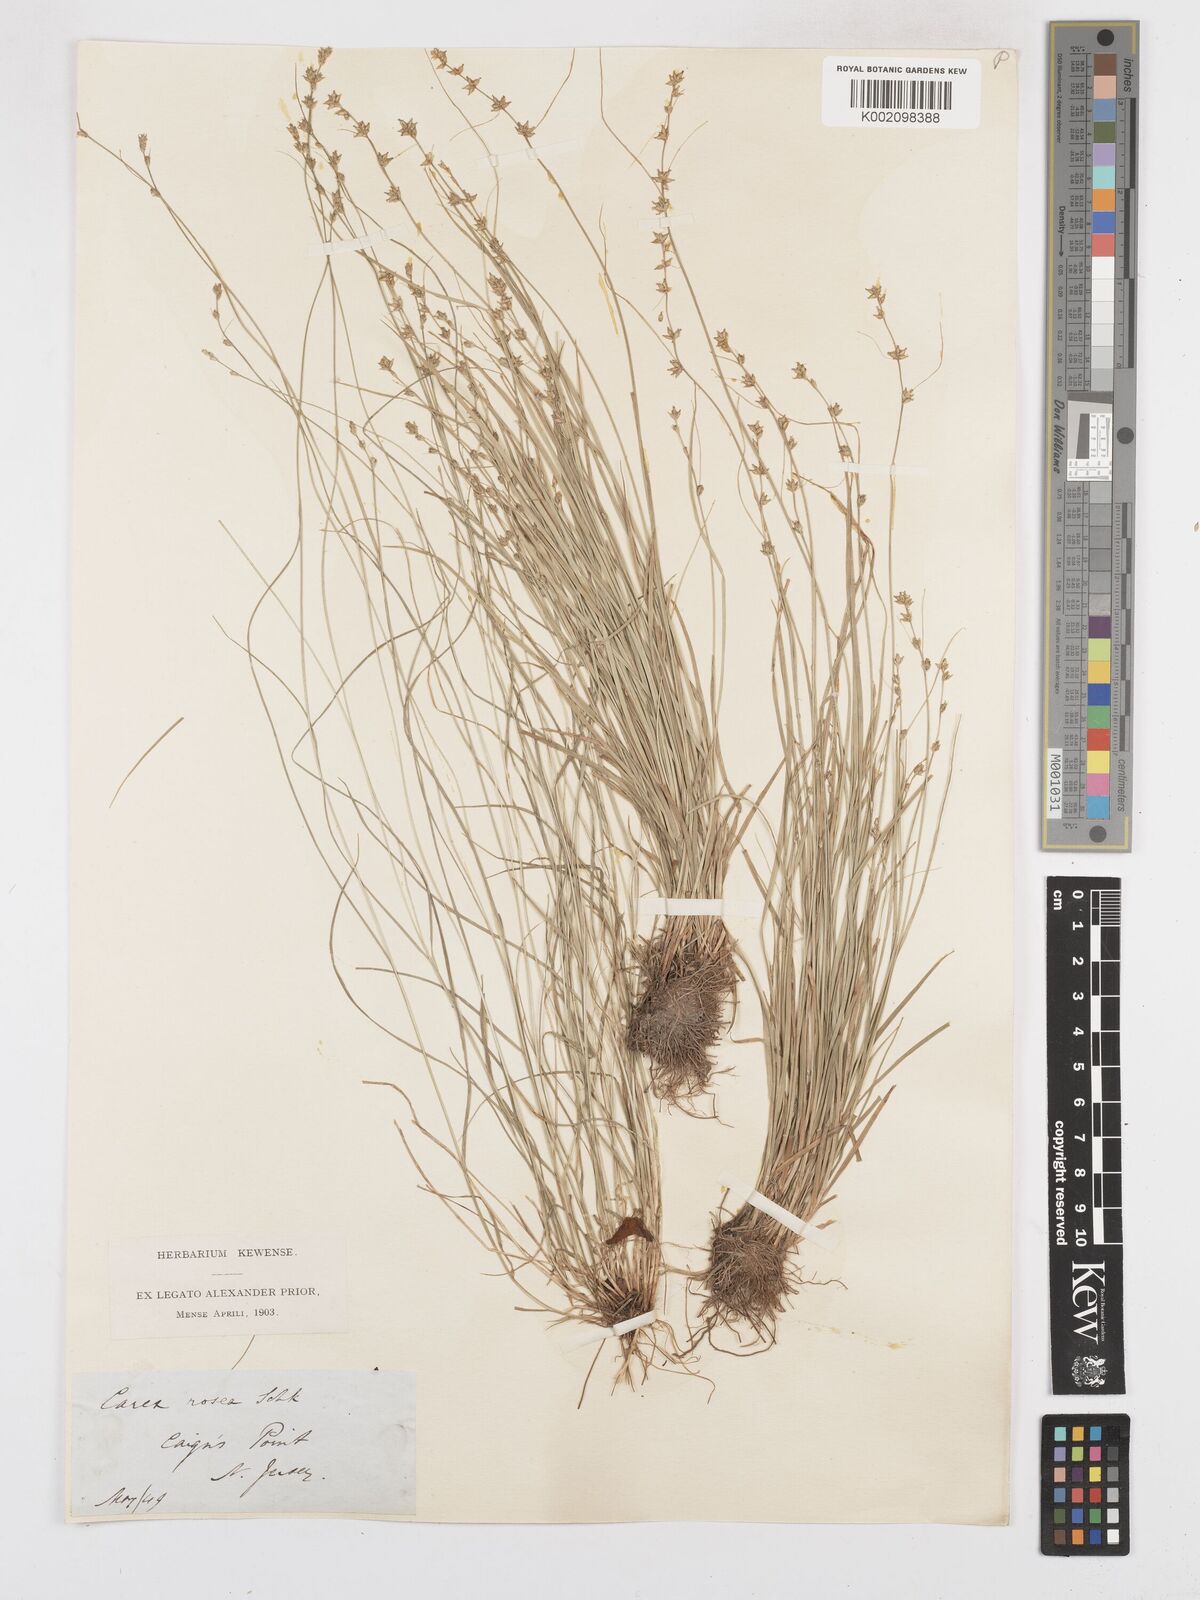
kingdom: Plantae
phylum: Tracheophyta
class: Liliopsida
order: Poales
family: Cyperaceae
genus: Carex
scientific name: Carex rosea
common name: Curly-styled wood sedge
